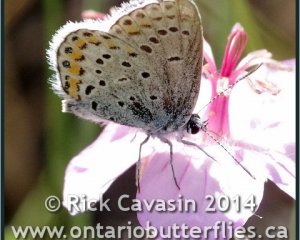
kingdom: Animalia
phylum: Arthropoda
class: Insecta
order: Lepidoptera
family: Lycaenidae
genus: Lycaeides
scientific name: Lycaeides melissa
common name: Melissa Blue
